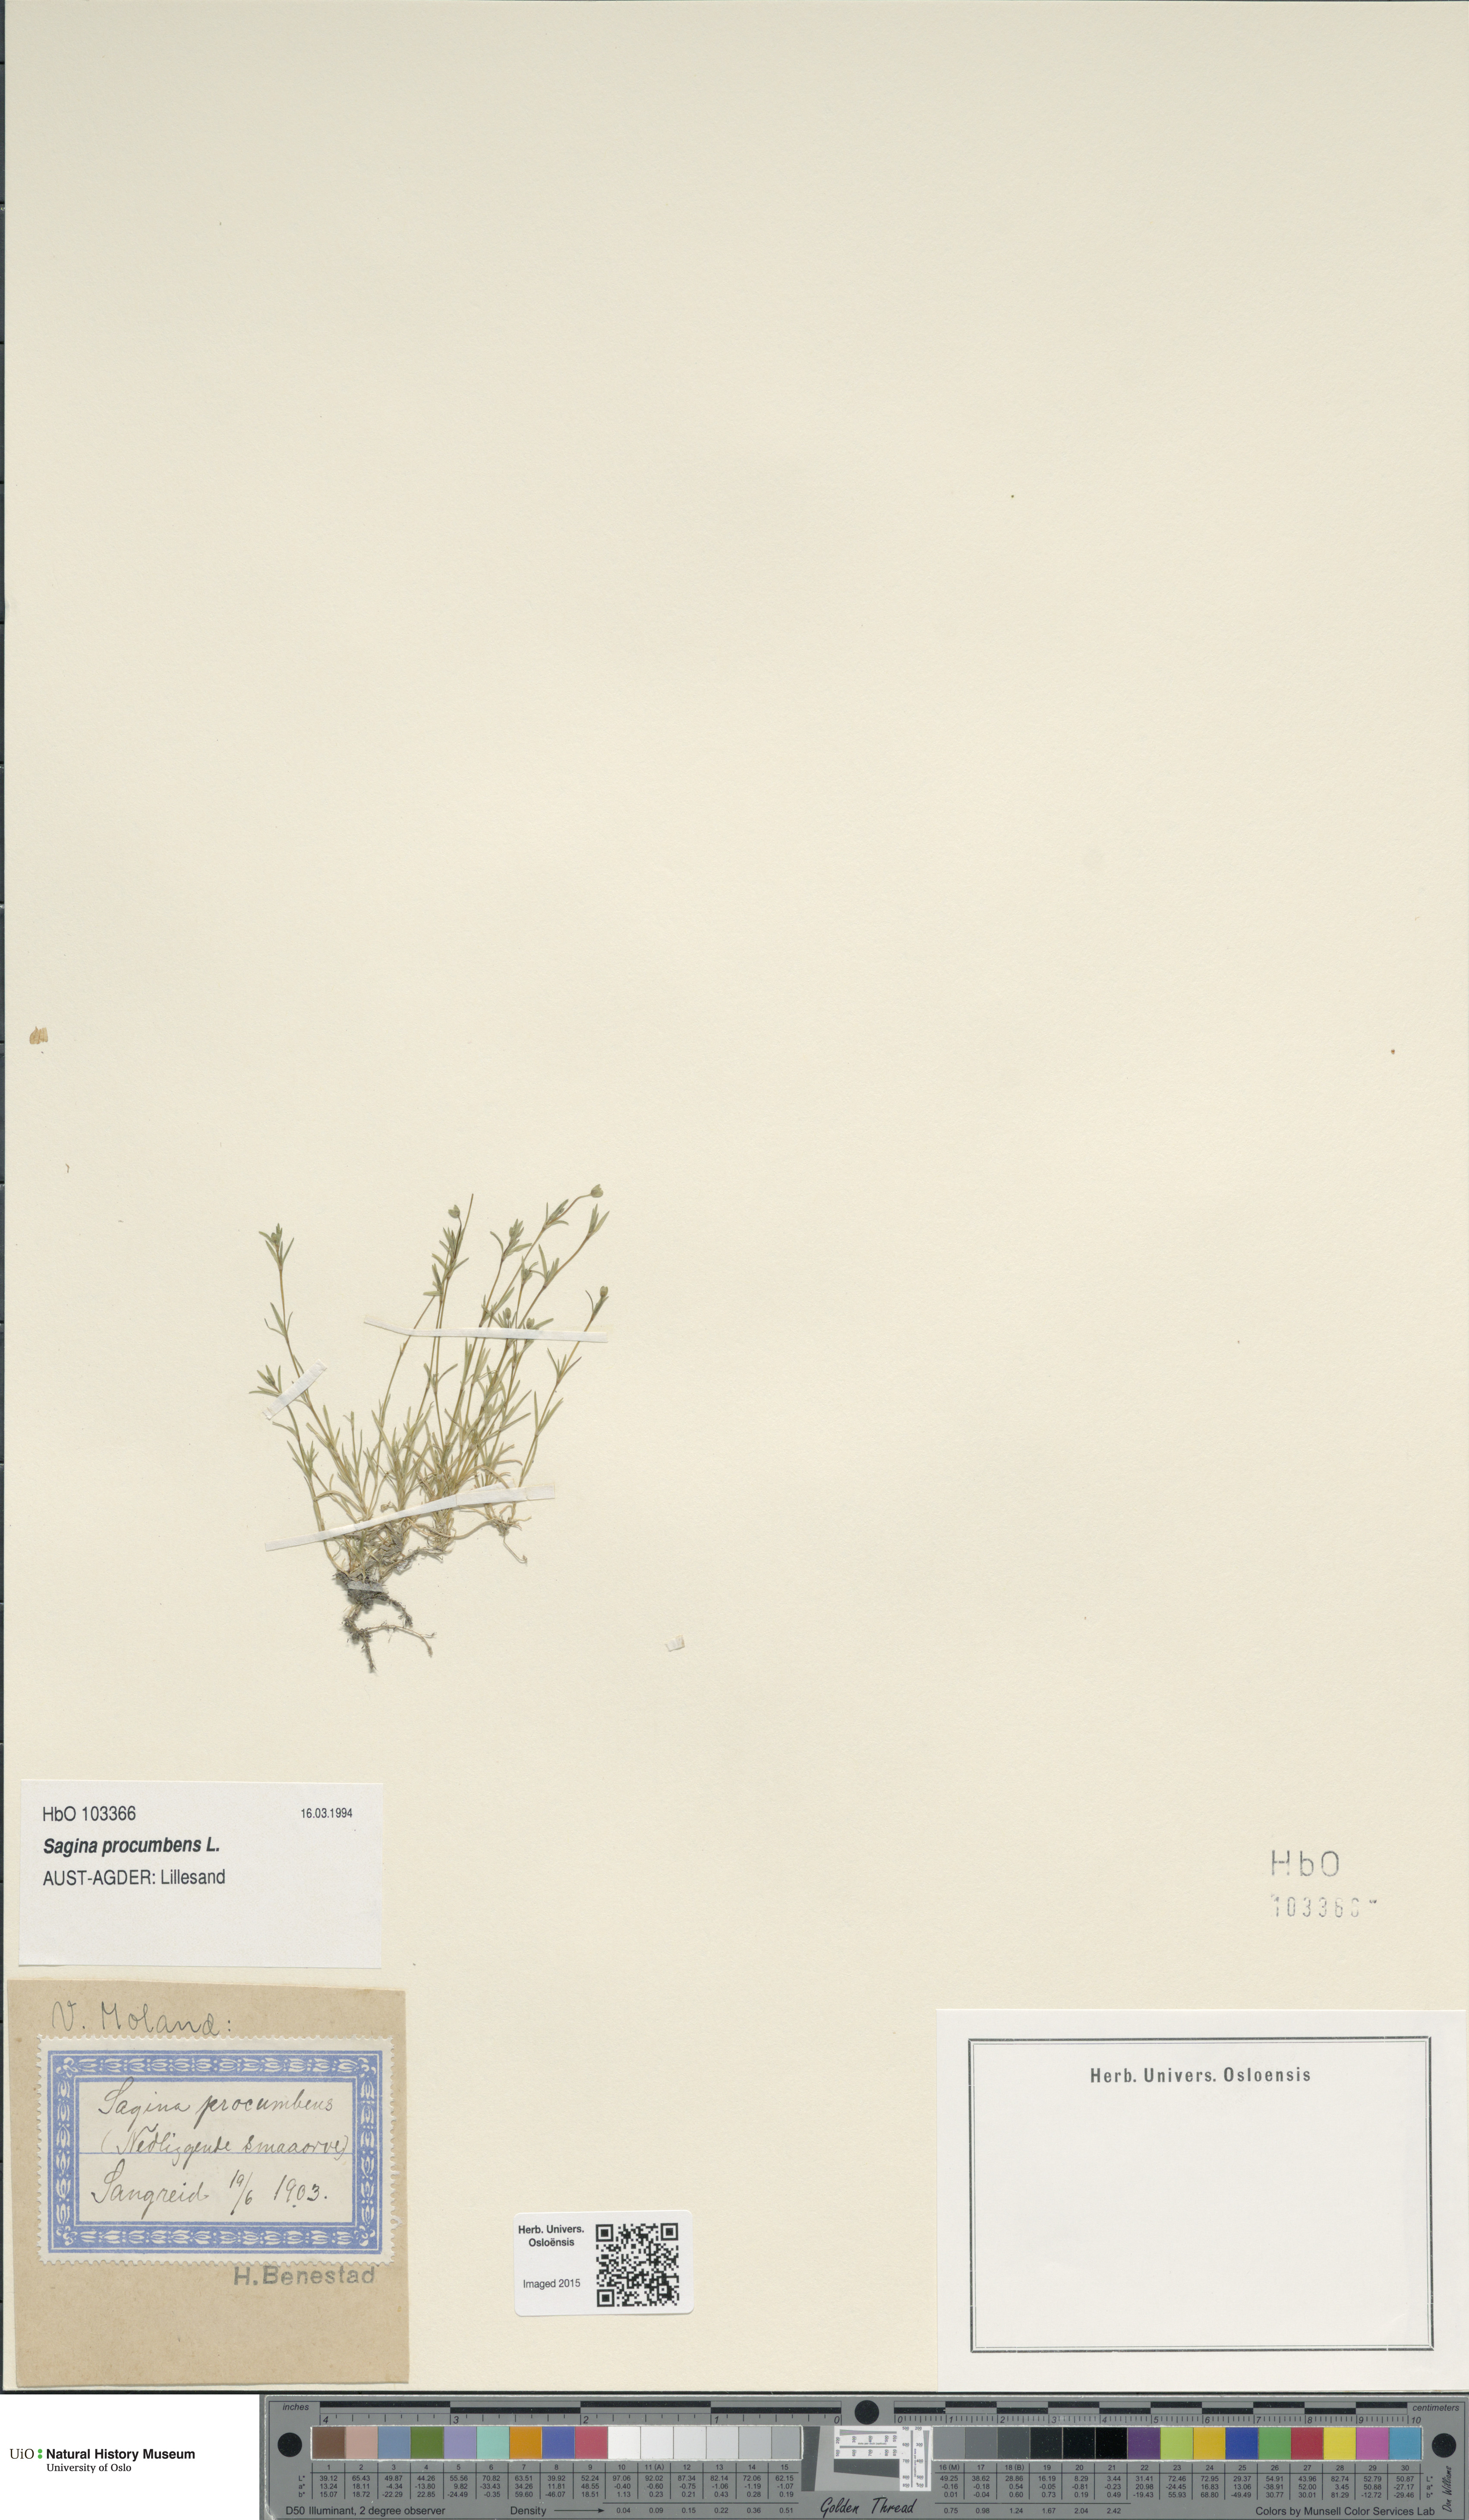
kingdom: Plantae
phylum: Tracheophyta
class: Magnoliopsida
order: Caryophyllales
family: Caryophyllaceae
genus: Sagina
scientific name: Sagina procumbens
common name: Procumbent pearlwort
